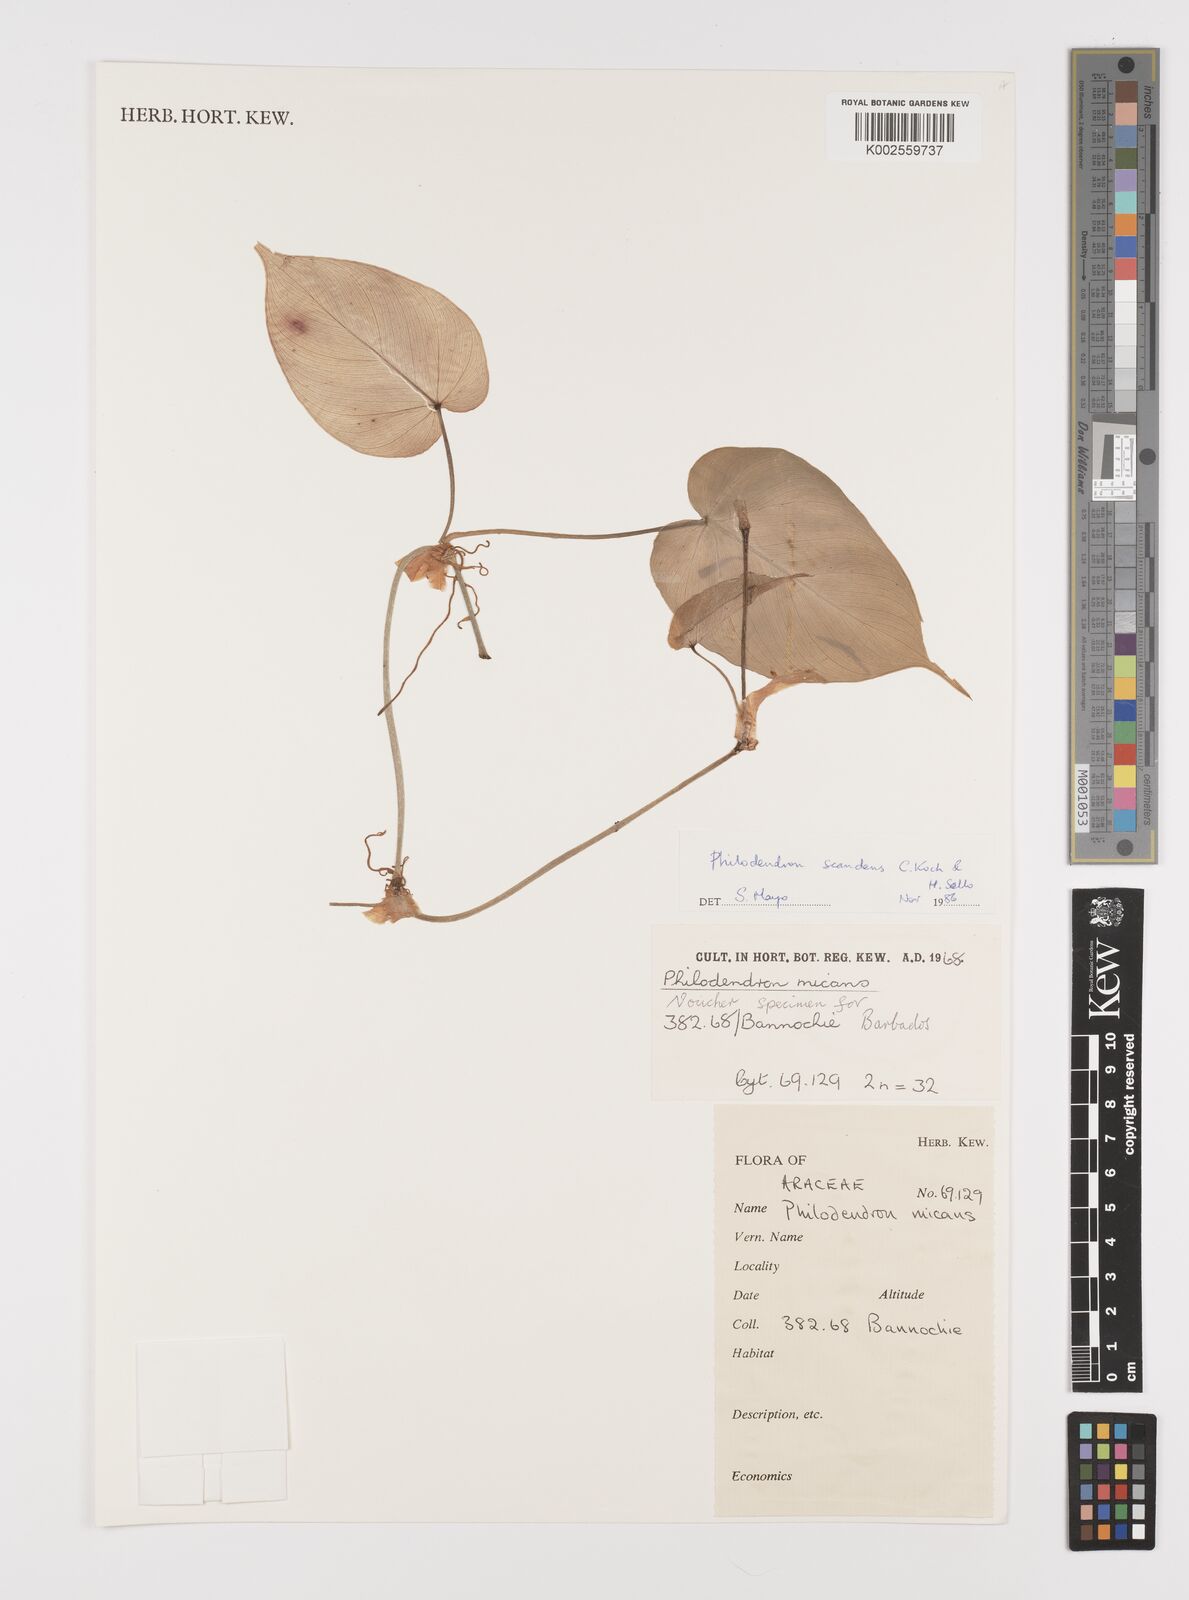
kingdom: Plantae
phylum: Tracheophyta
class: Liliopsida
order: Alismatales
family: Araceae
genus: Philodendron
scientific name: Philodendron hederaceum
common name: Vilevine
